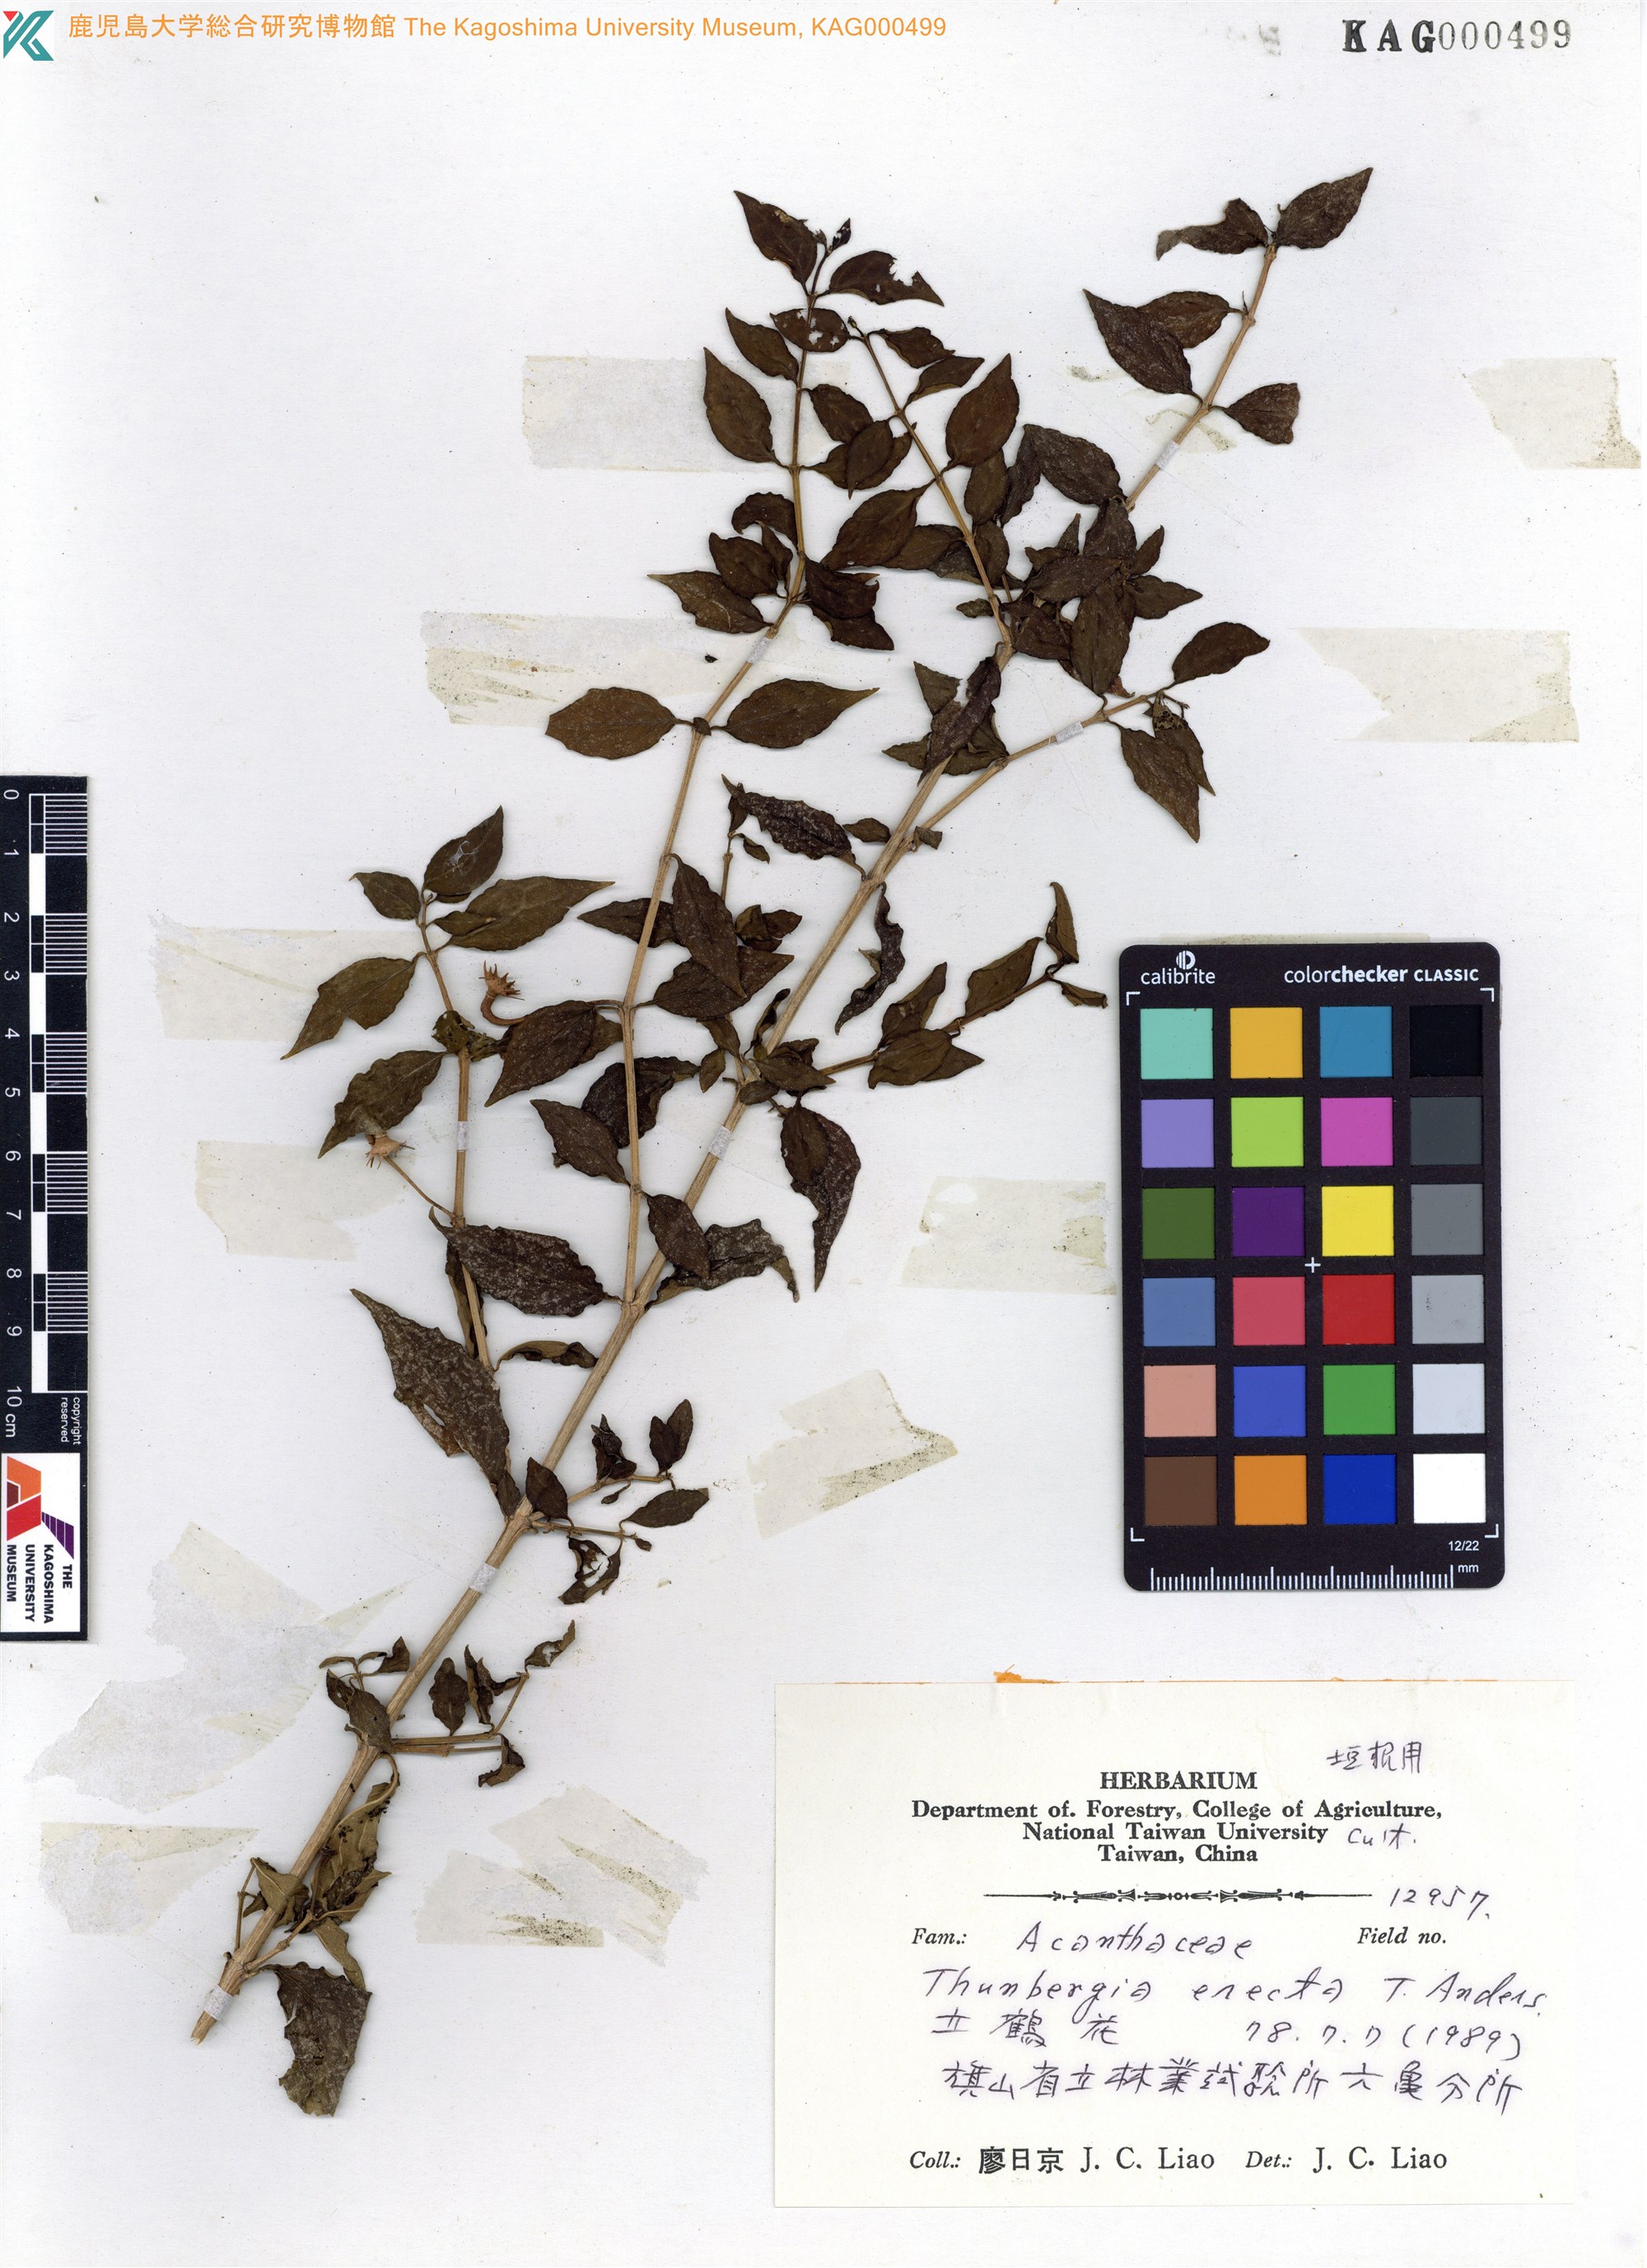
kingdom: Plantae
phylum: Tracheophyta
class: Magnoliopsida
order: Lamiales
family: Acanthaceae
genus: Thunbergia
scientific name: Thunbergia erecta
